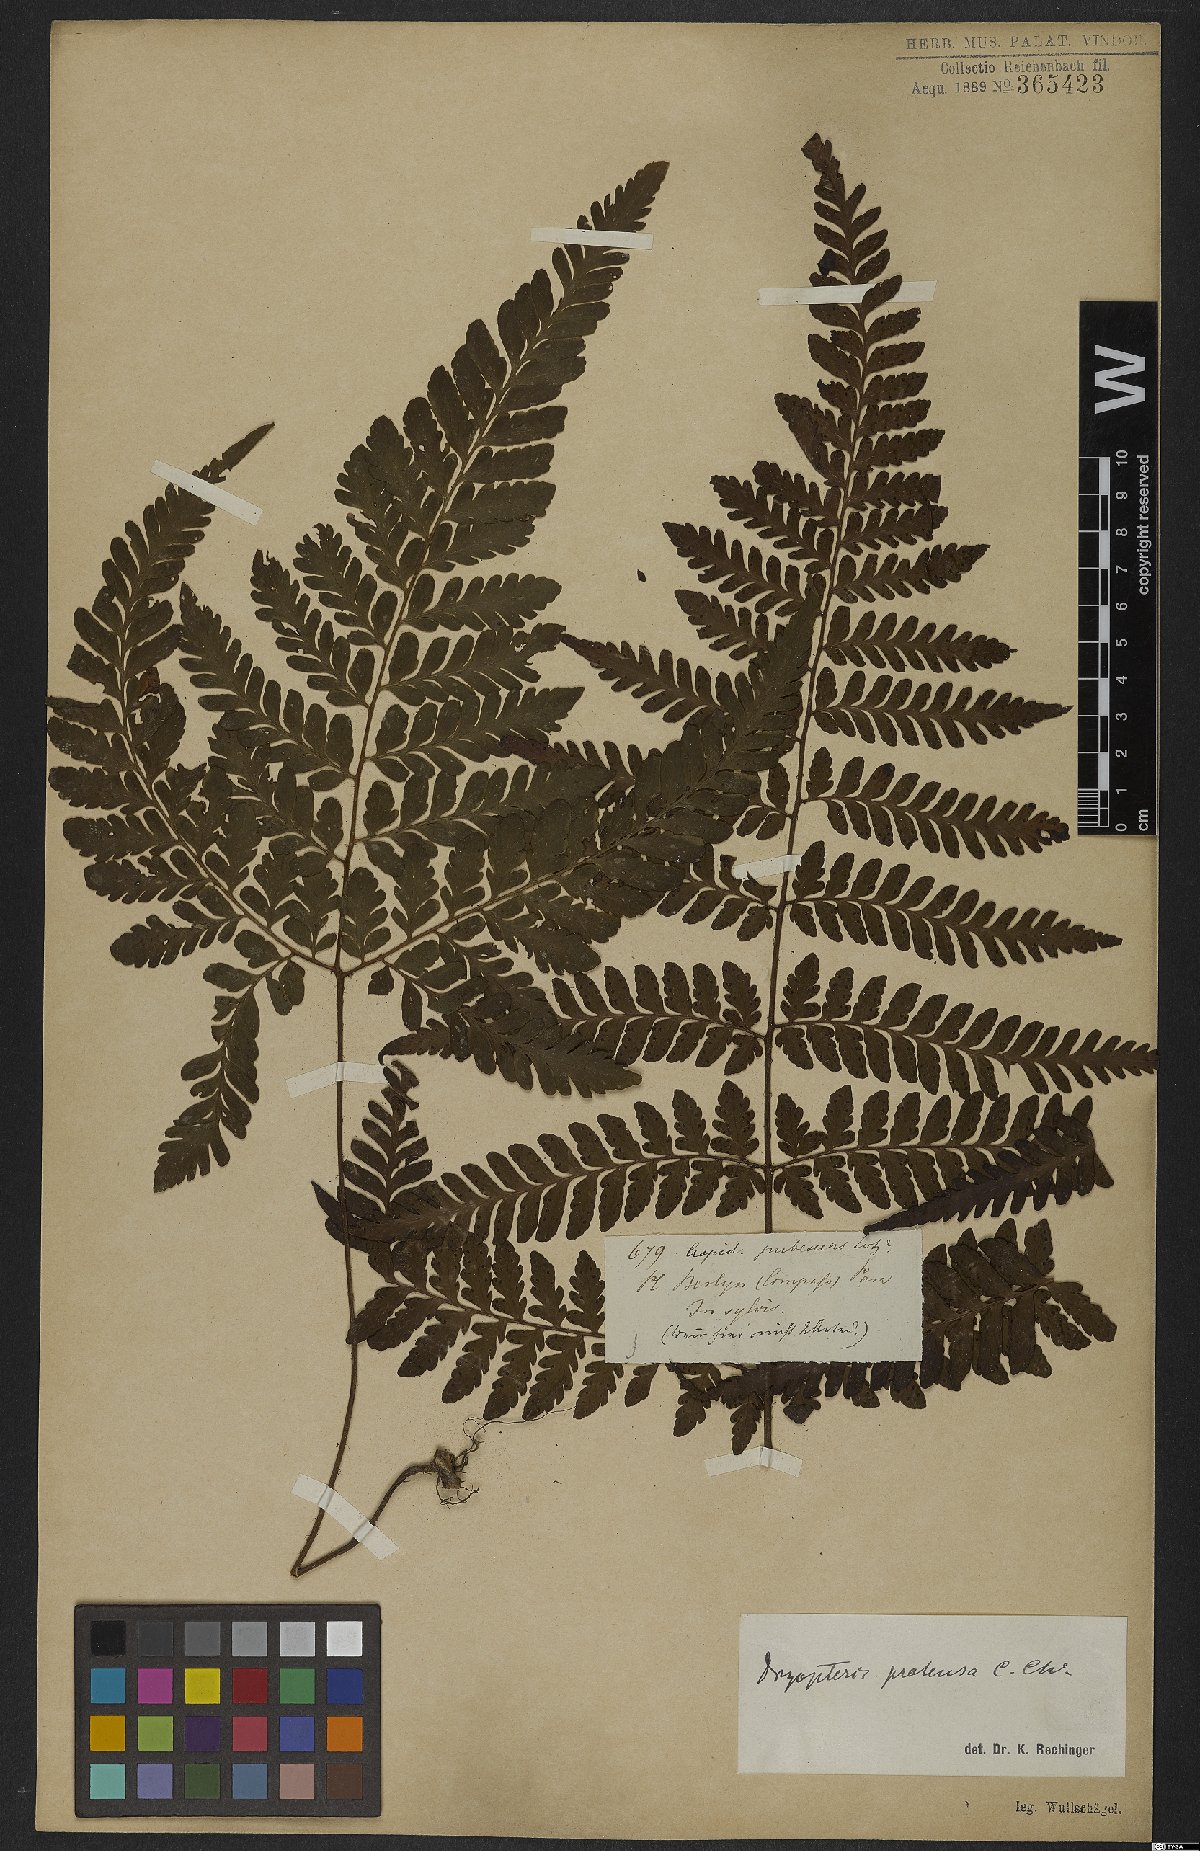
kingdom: Plantae
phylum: Tracheophyta
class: Polypodiopsida
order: Polypodiales
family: Tectariaceae
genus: Triplophyllum
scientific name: Triplophyllum protensum
